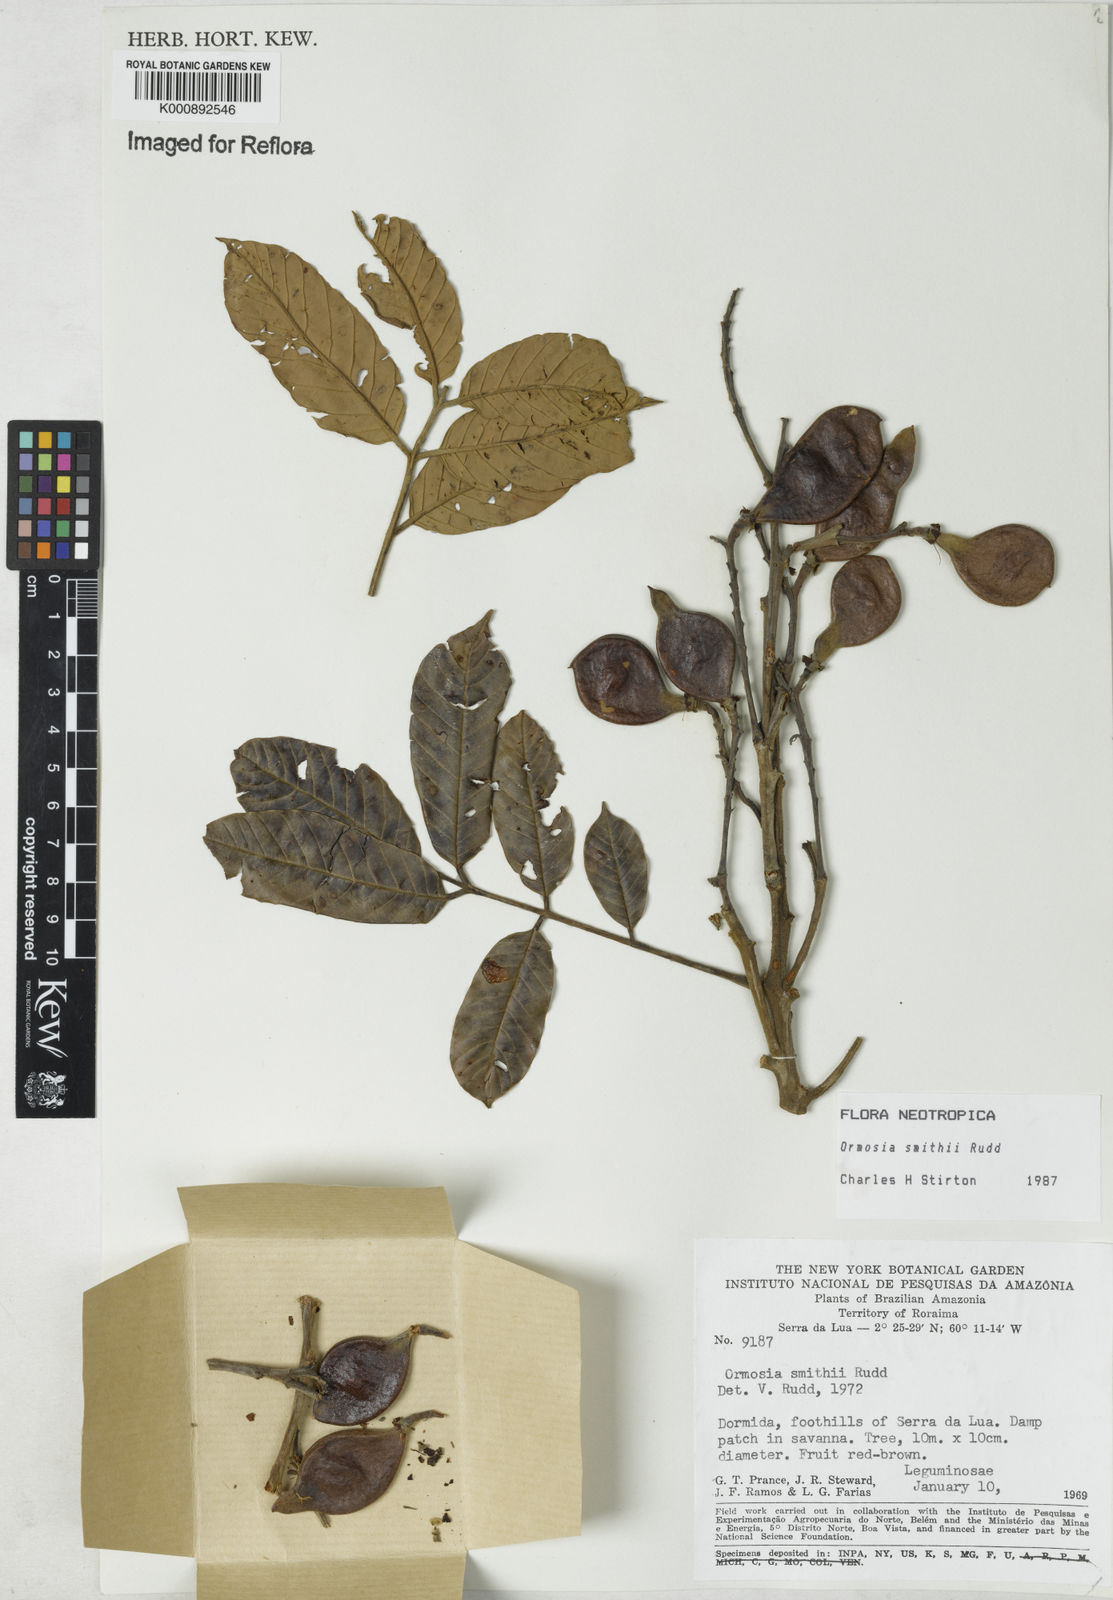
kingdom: Plantae
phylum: Tracheophyta
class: Magnoliopsida
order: Fabales
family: Fabaceae
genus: Ormosia
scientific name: Ormosia smithii
